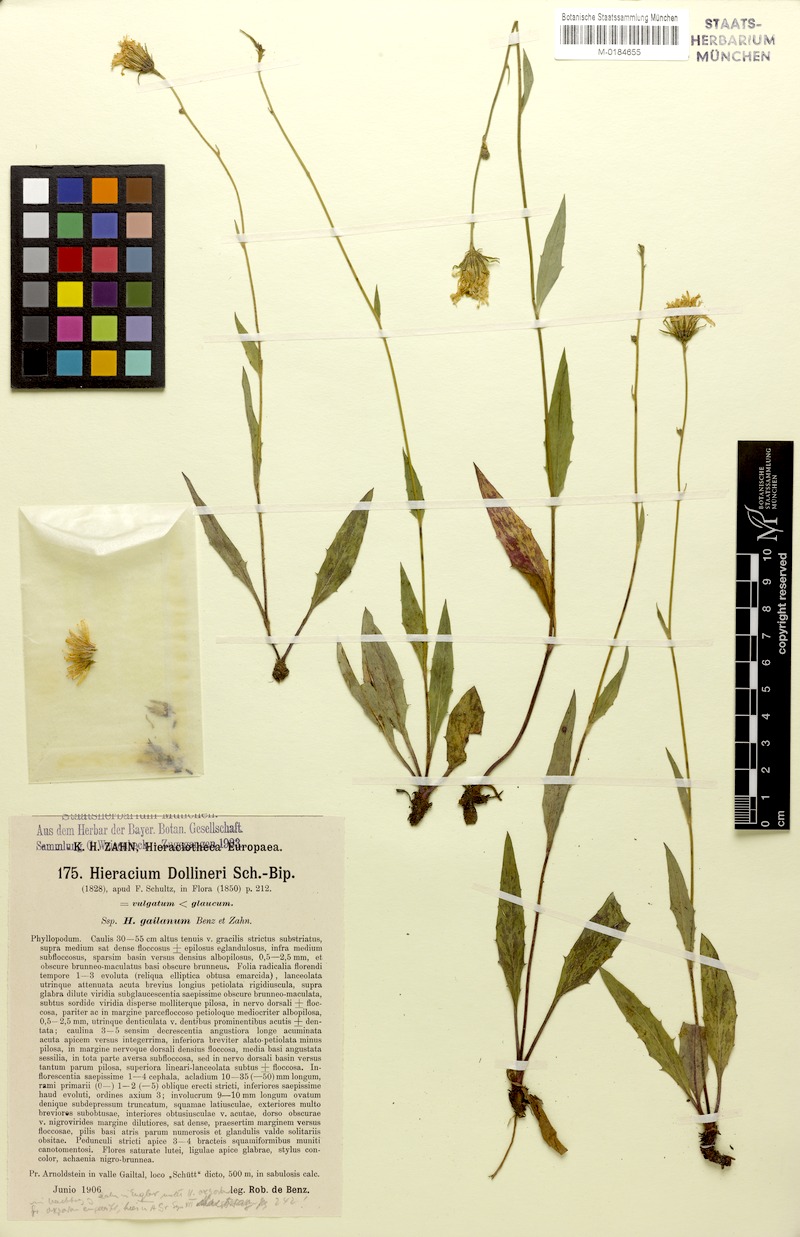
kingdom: Plantae
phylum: Tracheophyta
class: Magnoliopsida
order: Asterales
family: Asteraceae
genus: Hieracium
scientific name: Hieracium dollineri
